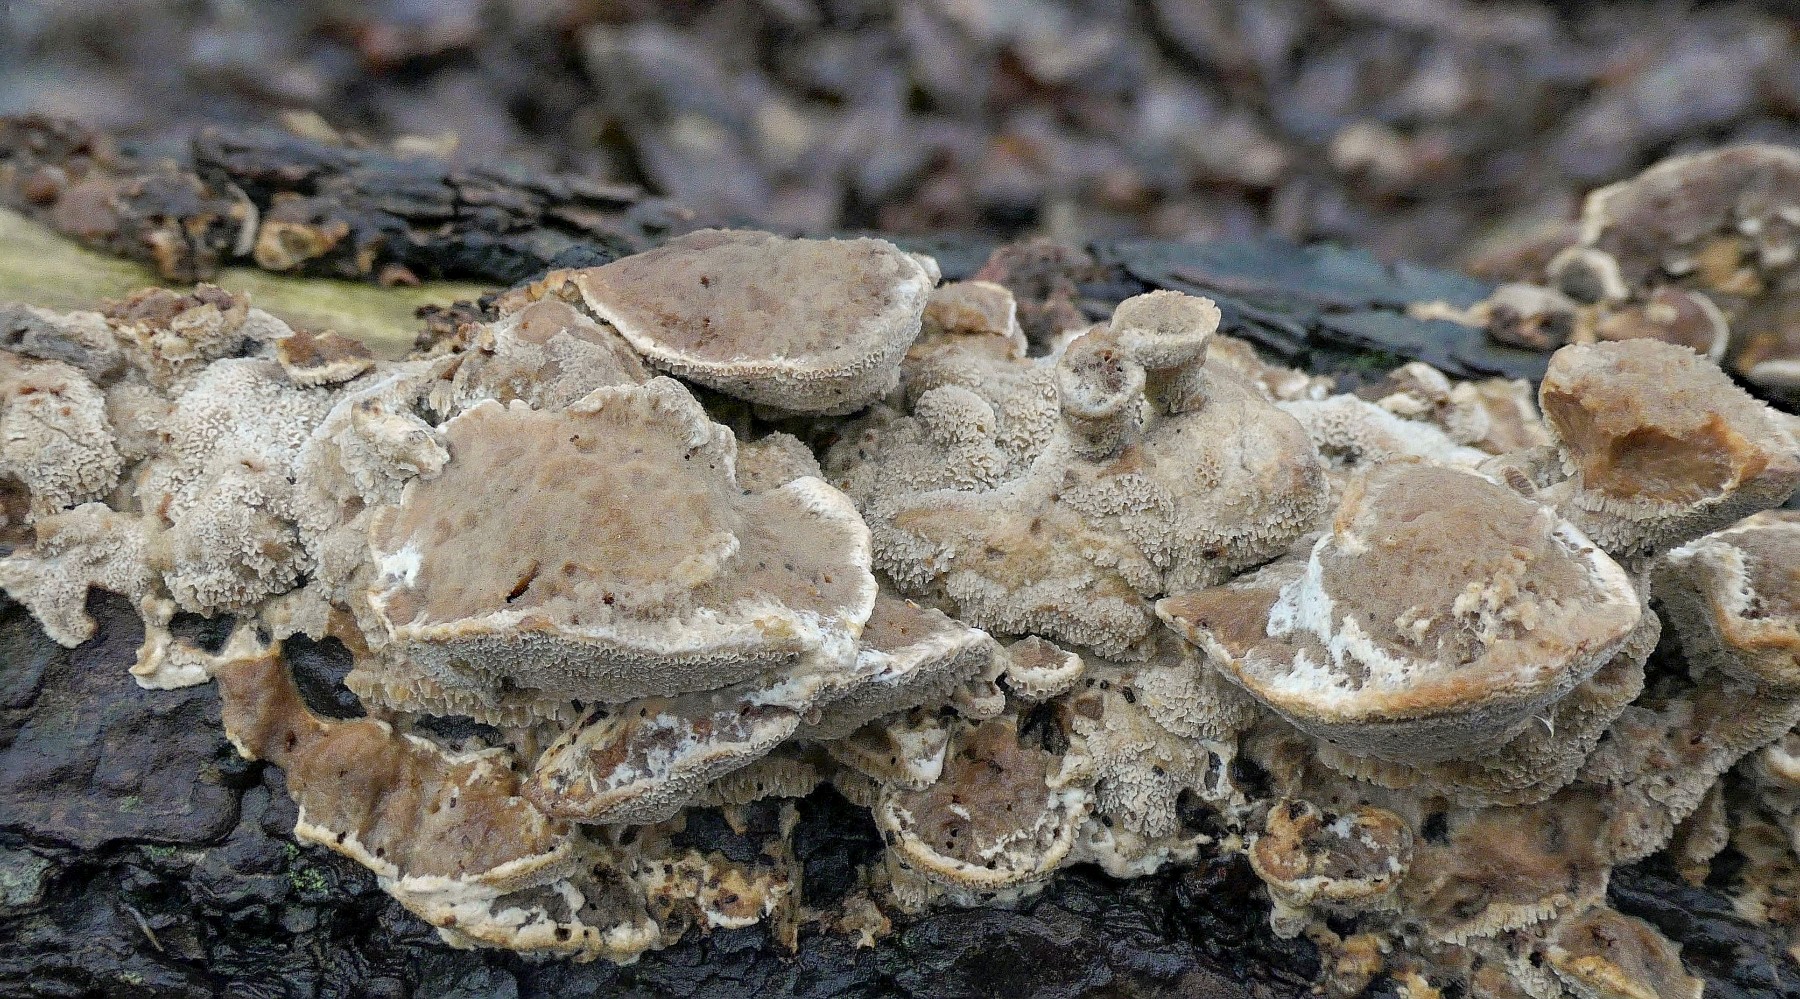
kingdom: Fungi
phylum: Basidiomycota
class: Agaricomycetes
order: Polyporales
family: Phanerochaetaceae
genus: Bjerkandera
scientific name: Bjerkandera fumosa
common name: grågul sodporesvamp
